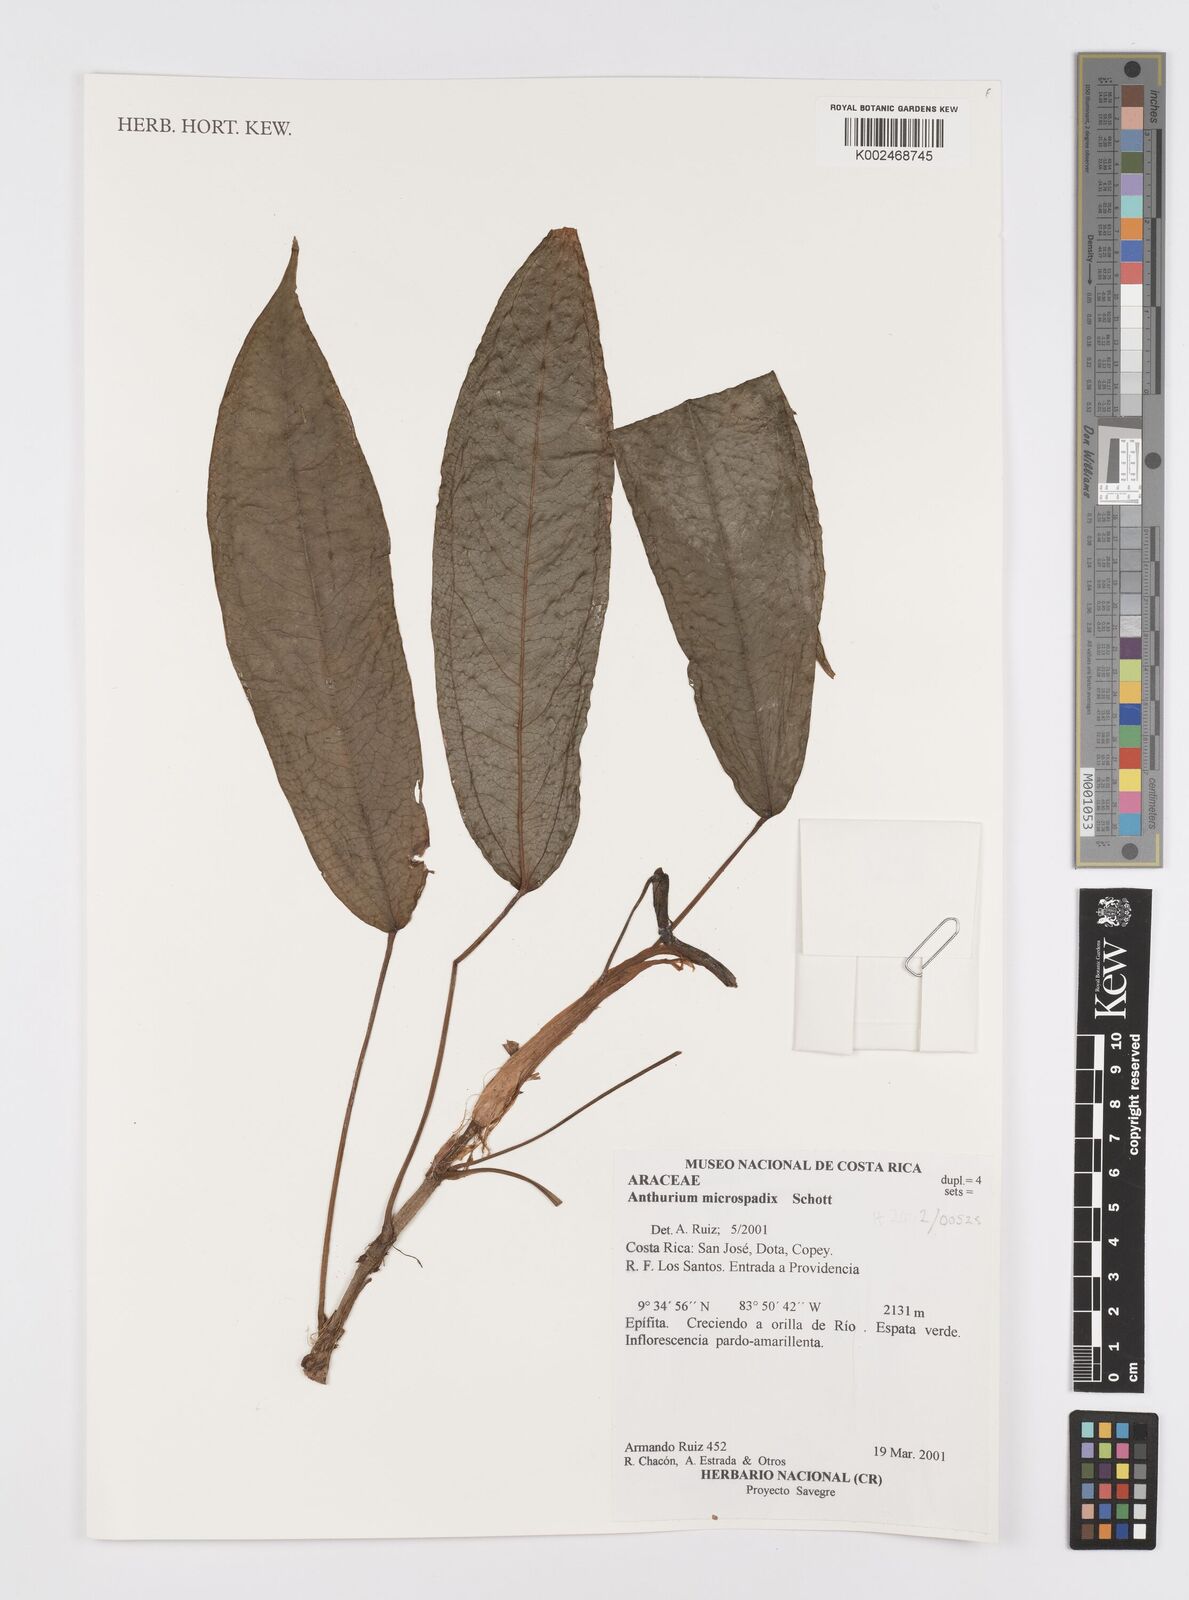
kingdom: Plantae
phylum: Tracheophyta
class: Liliopsida
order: Alismatales
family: Araceae
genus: Anthurium
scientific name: Anthurium microspadix
